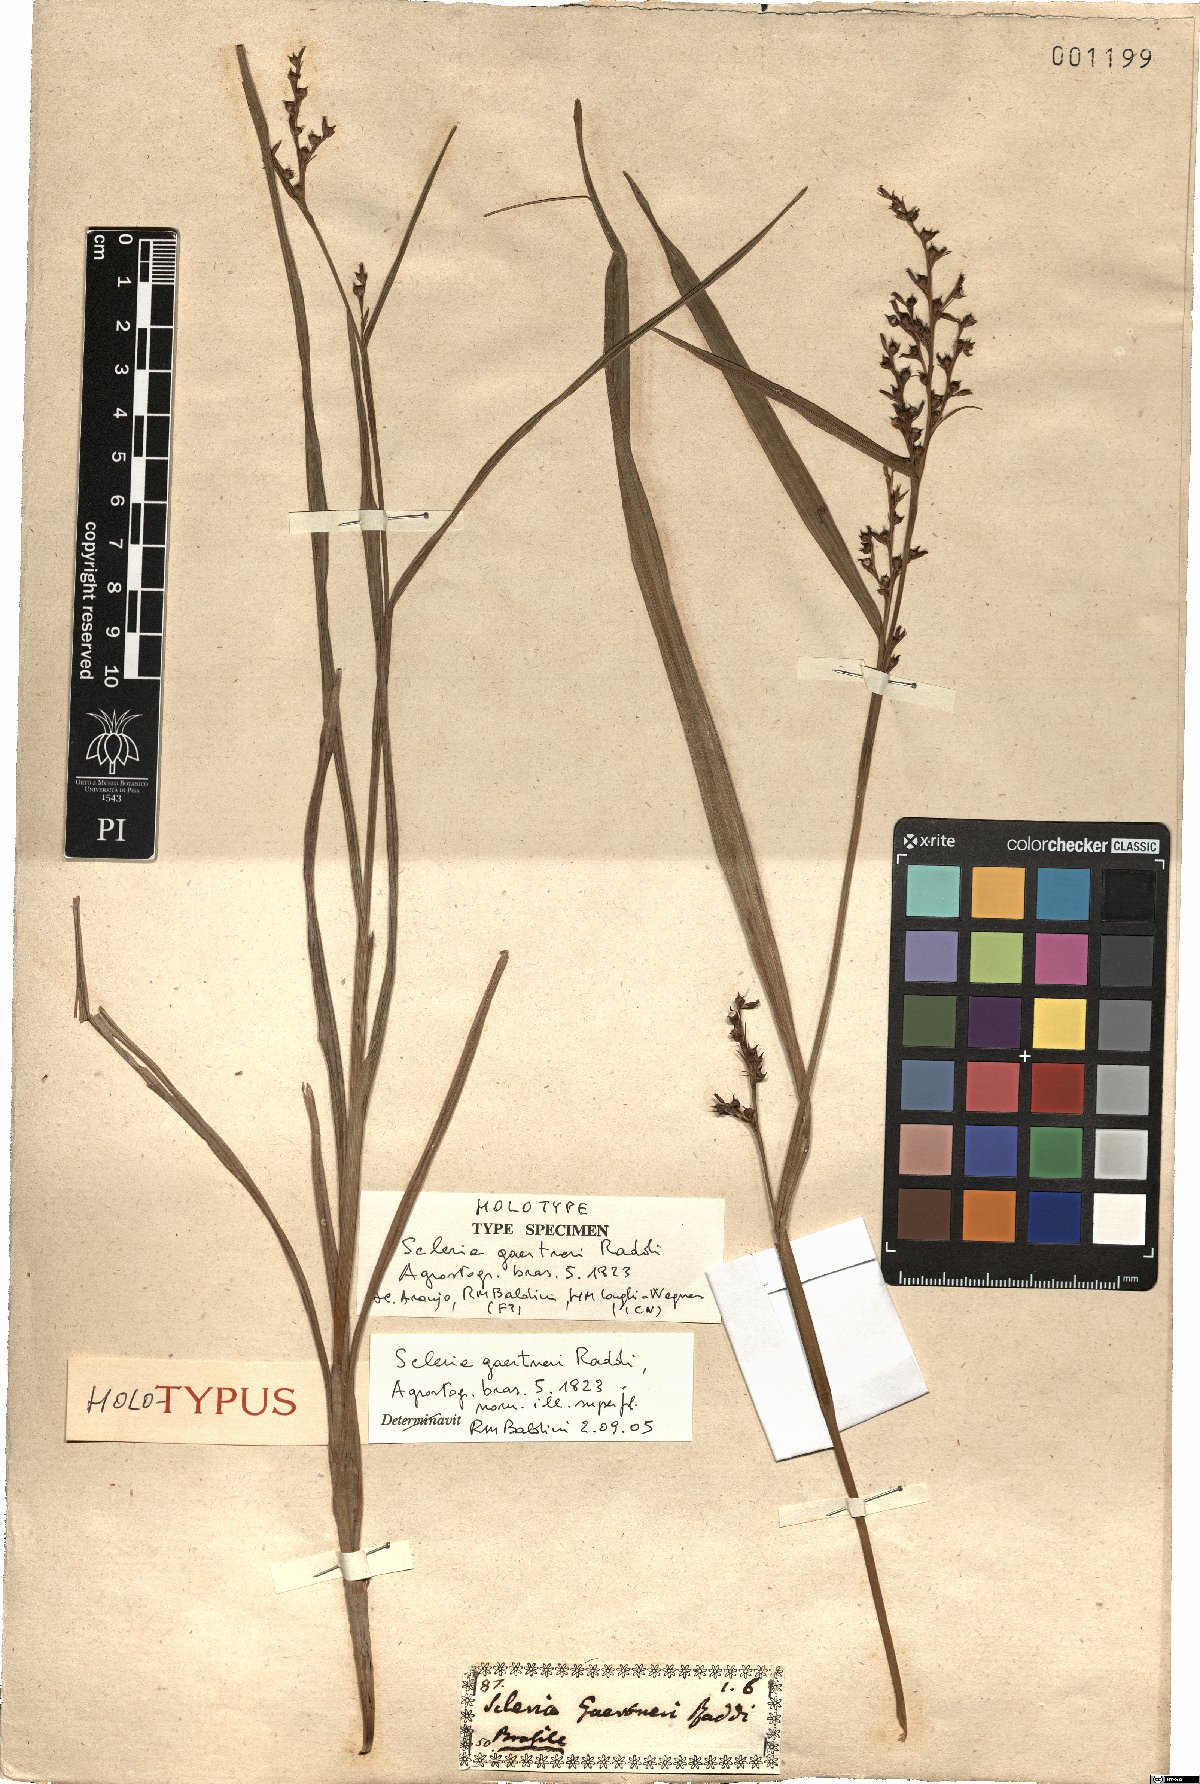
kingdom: Plantae
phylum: Tracheophyta
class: Liliopsida
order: Poales
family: Cyperaceae
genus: Scleria
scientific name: Scleria gaertneri
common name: Cortadera blanca
